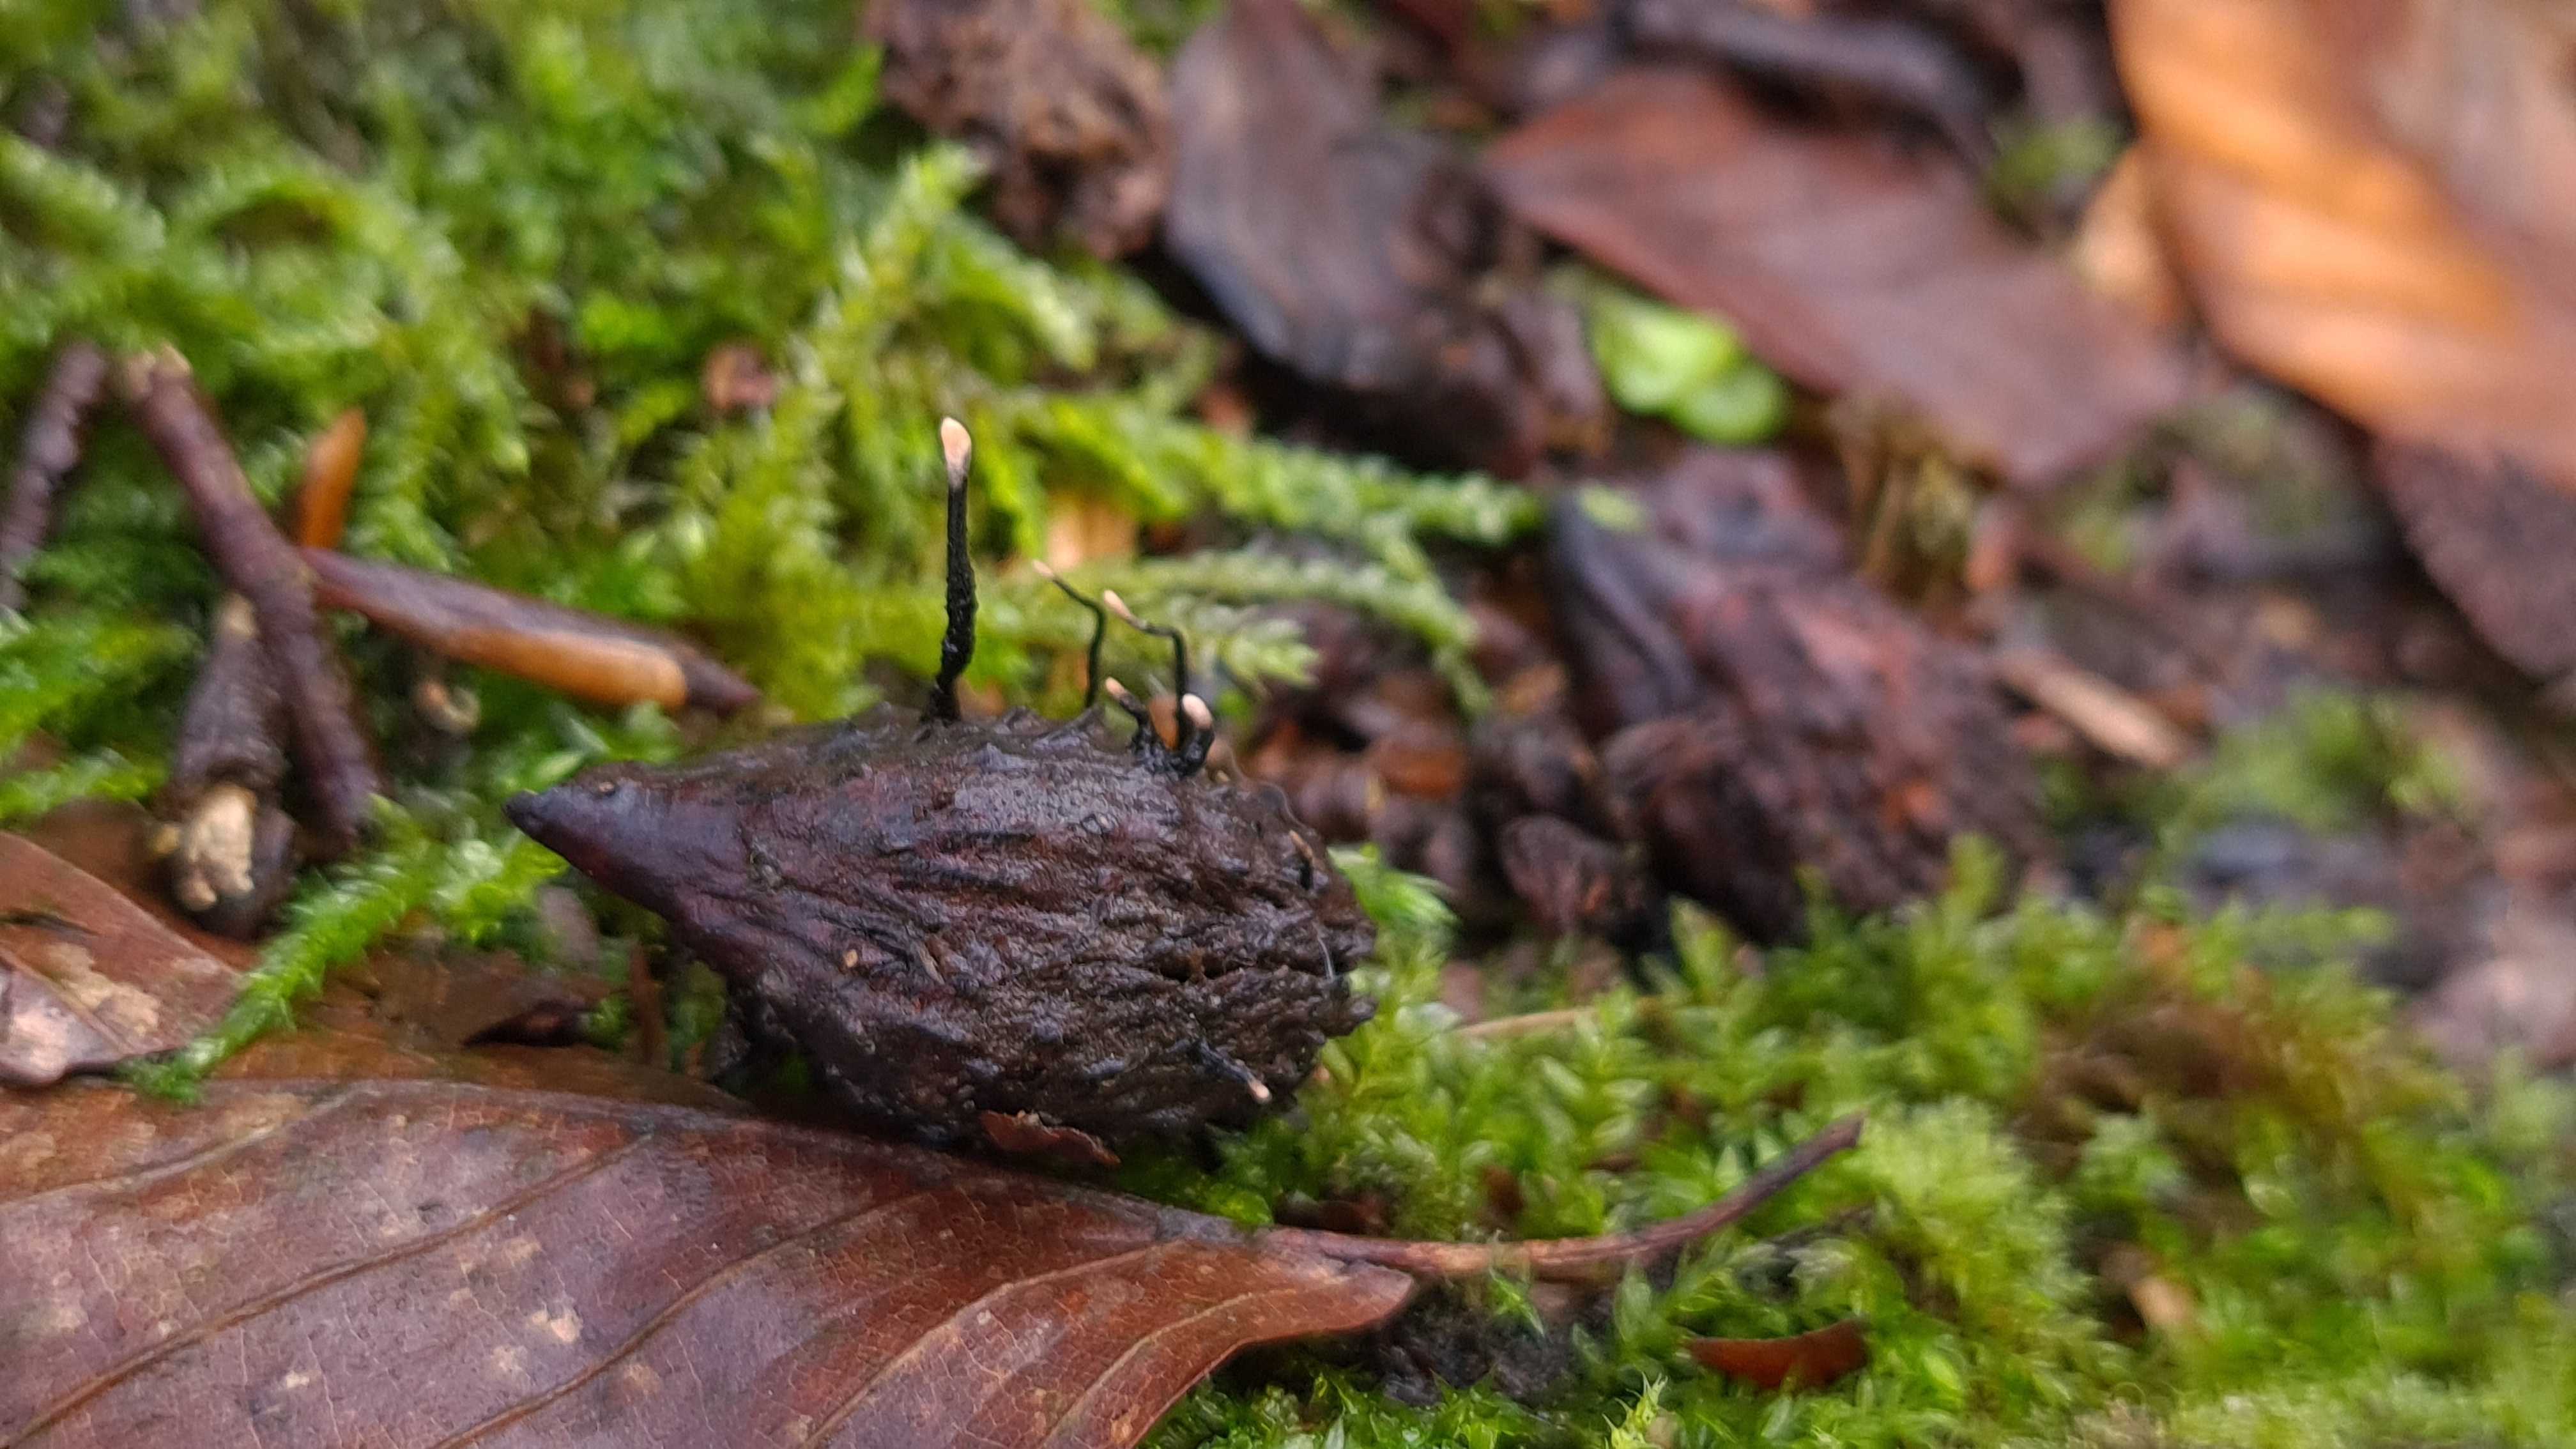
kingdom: Fungi
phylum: Ascomycota
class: Sordariomycetes
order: Xylariales
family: Xylariaceae
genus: Xylaria
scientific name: Xylaria carpophila
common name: bogskål-stødsvamp
